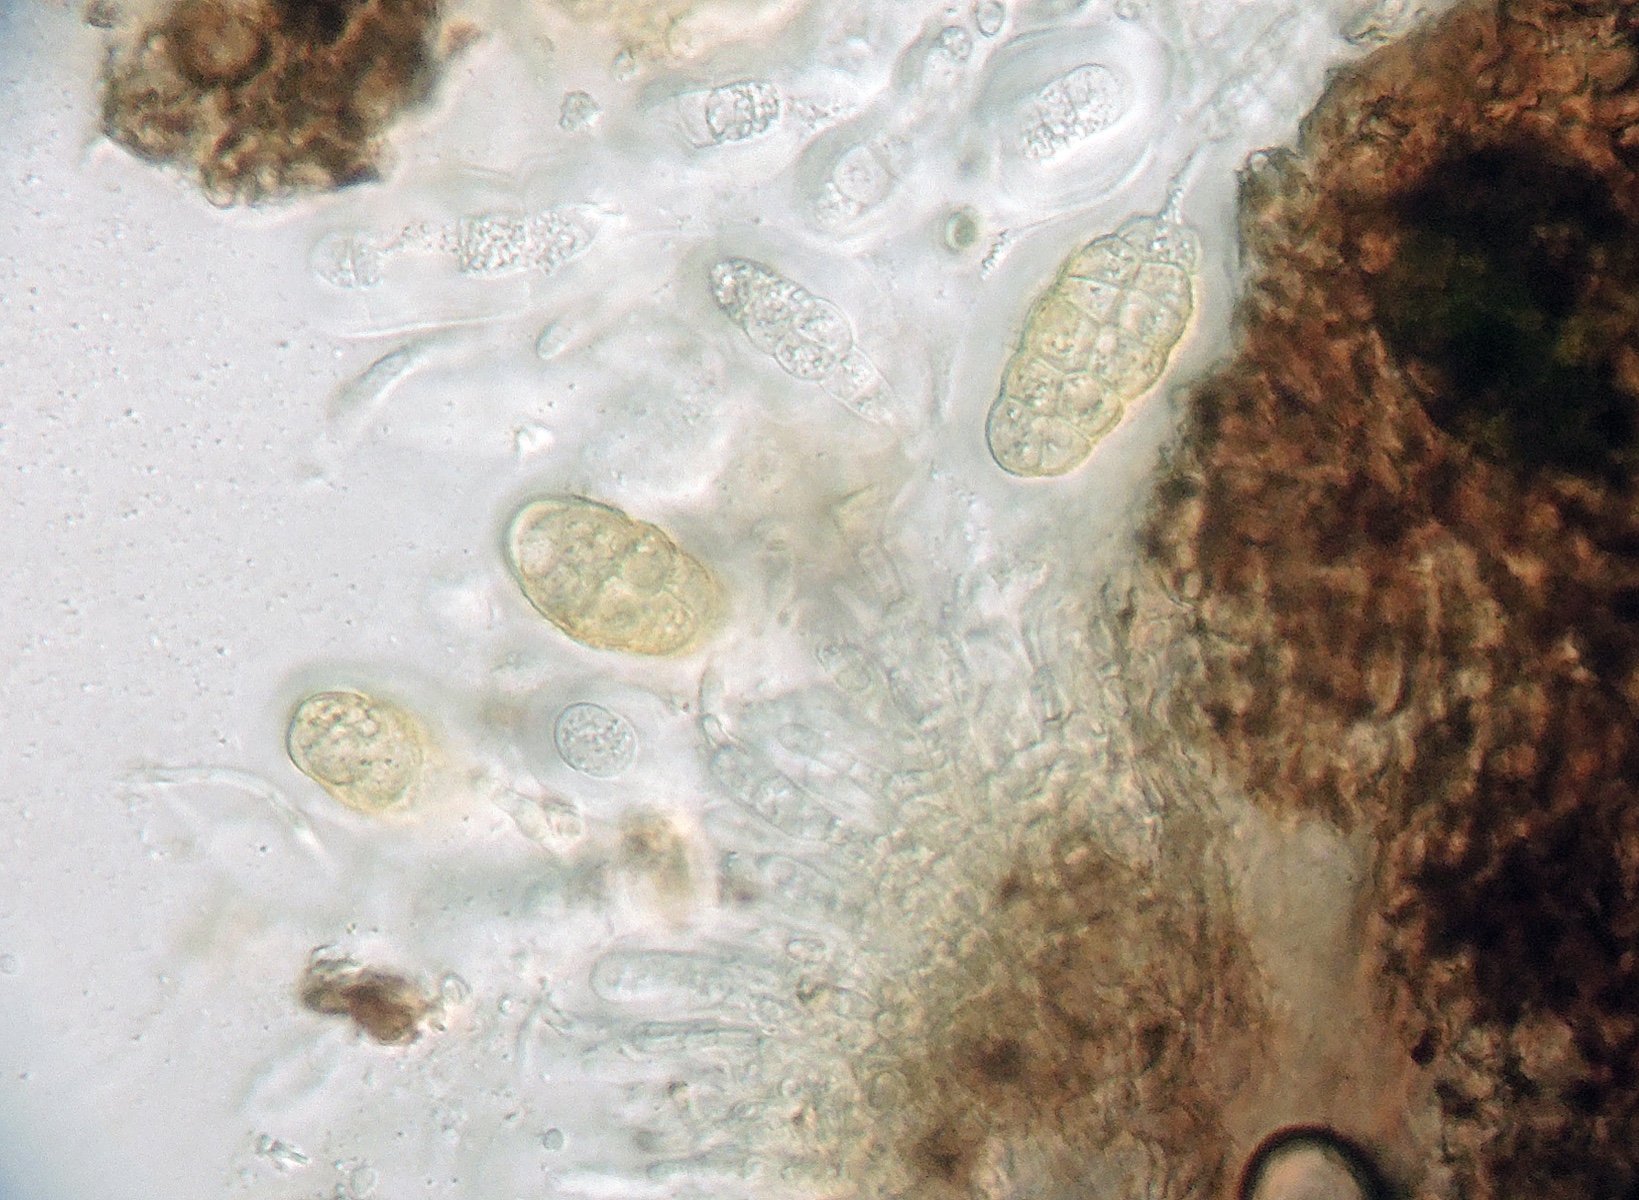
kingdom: Fungi
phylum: Ascomycota
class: Dothideomycetes
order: Pleosporales
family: Pleomassariaceae
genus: Splanchnonema
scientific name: Splanchnonema argus
